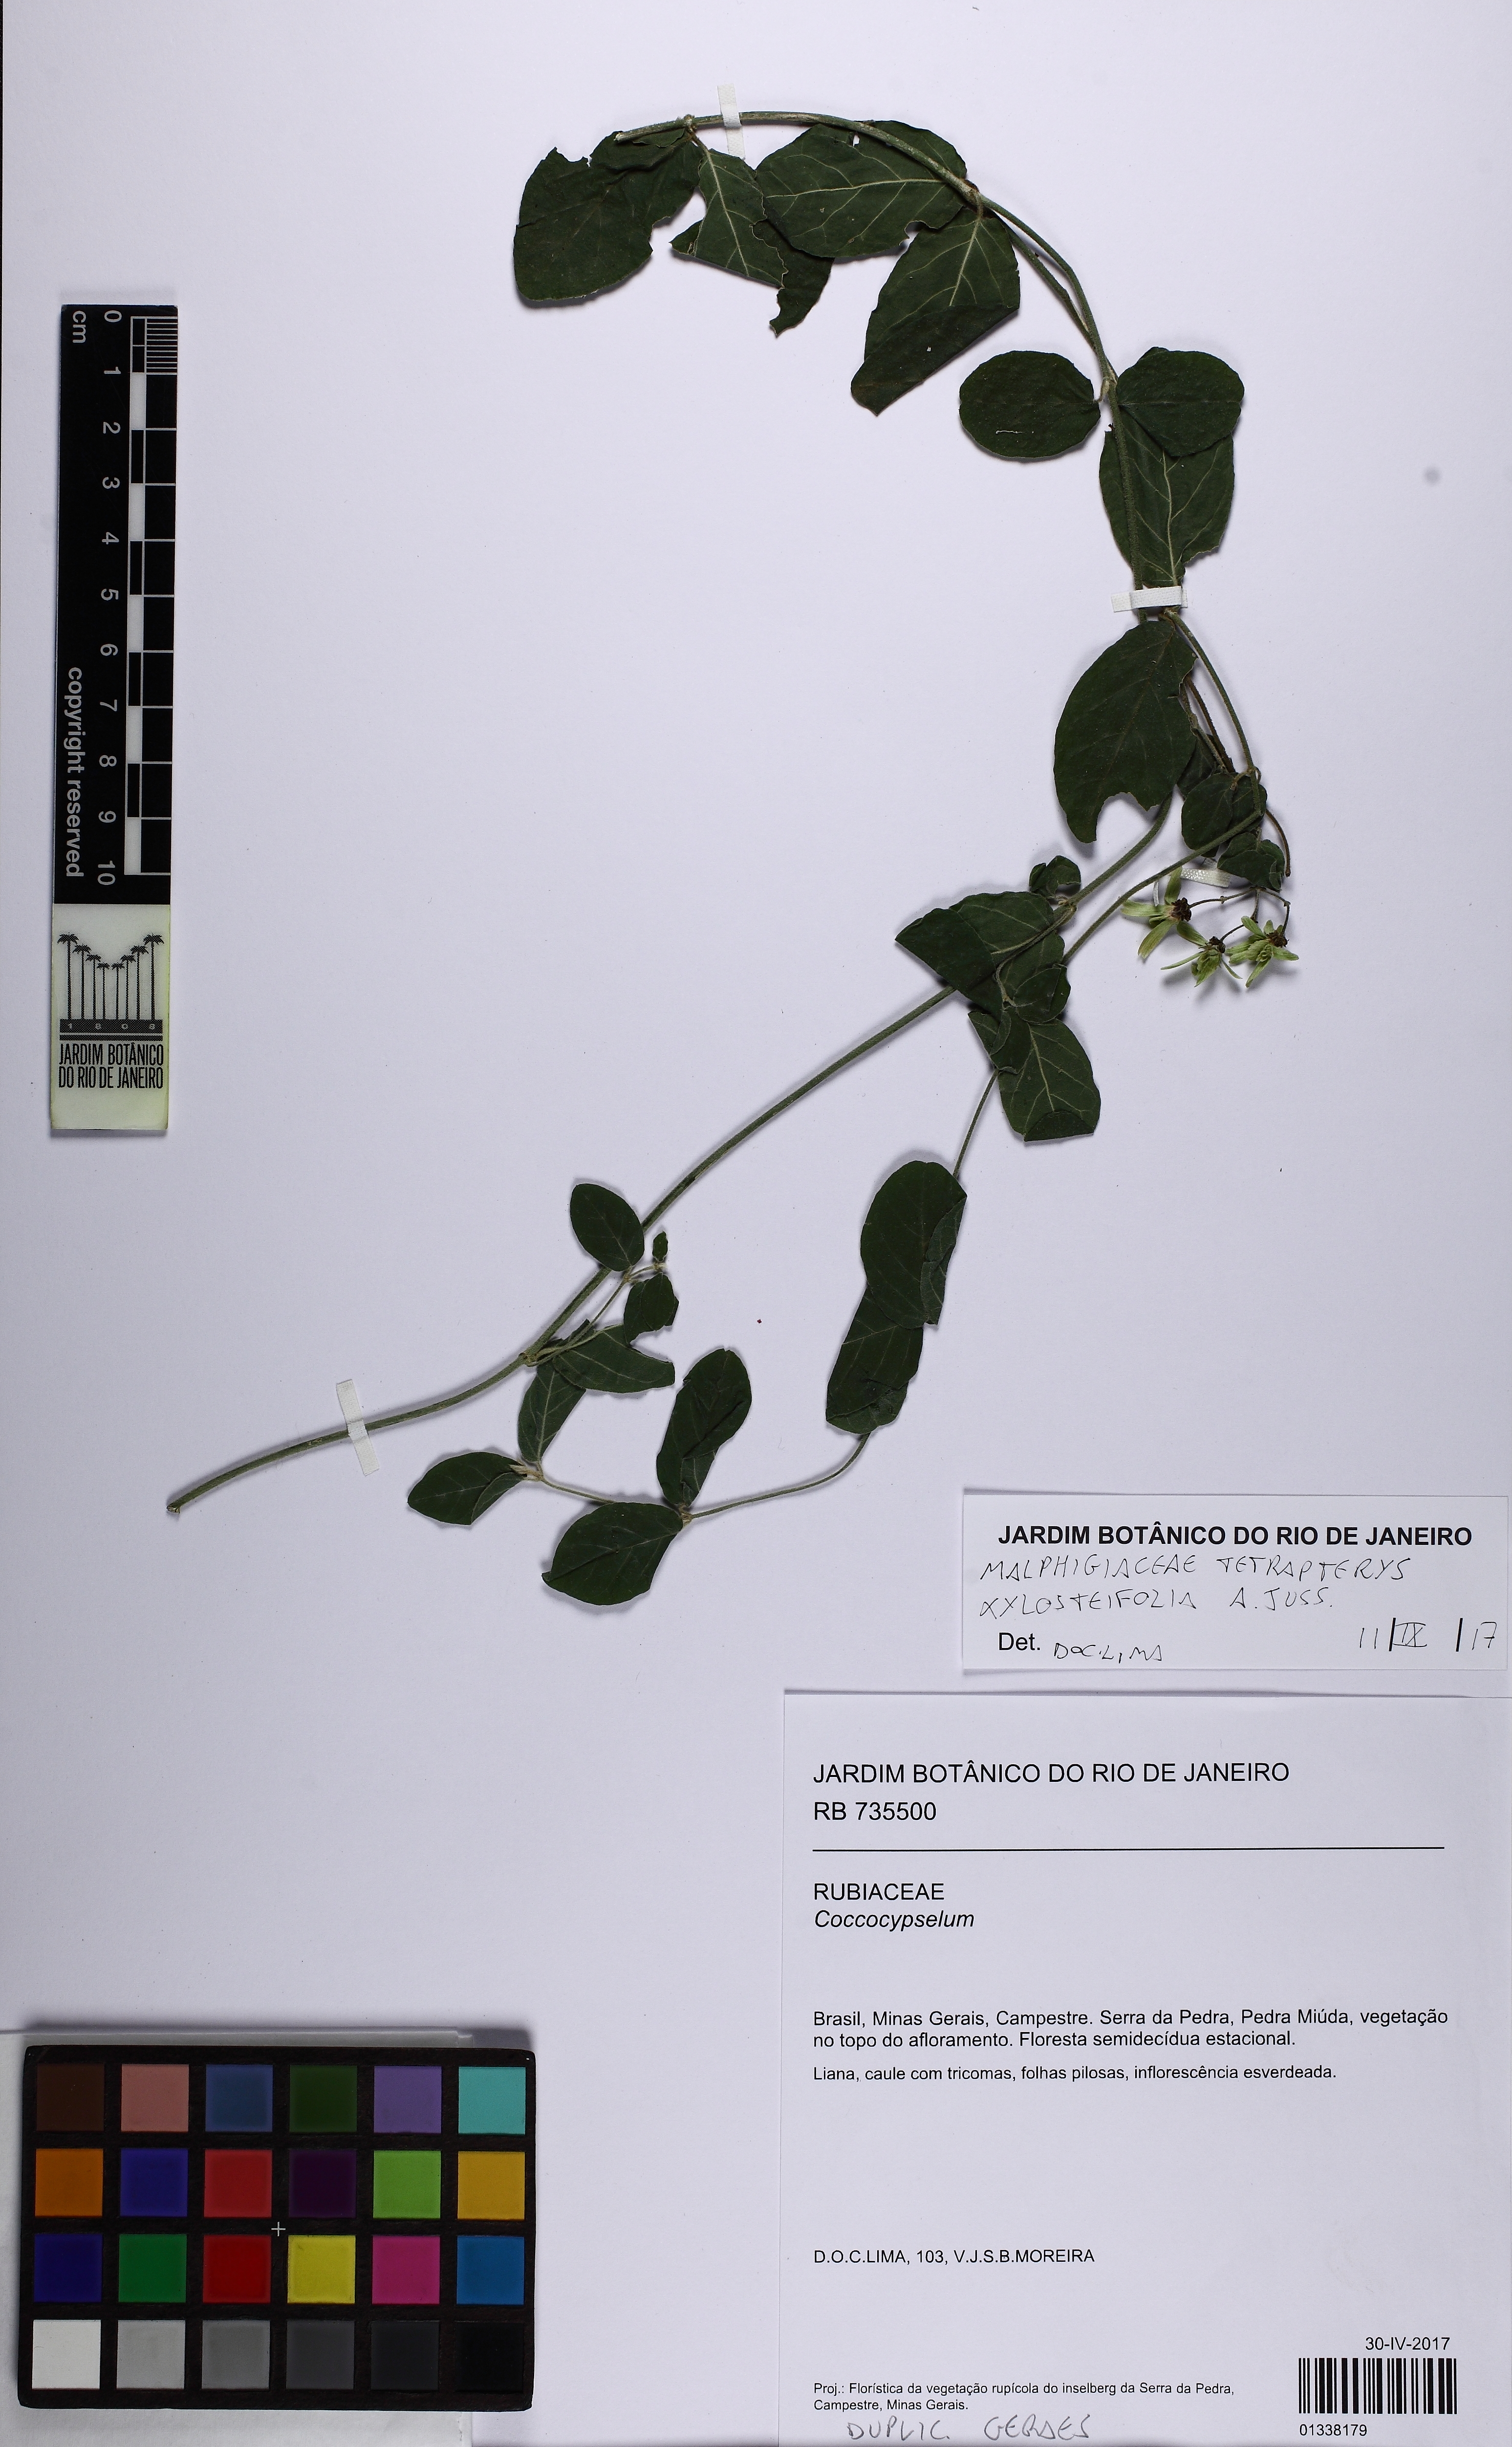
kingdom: Plantae
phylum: Tracheophyta
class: Magnoliopsida
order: Malpighiales
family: Malpighiaceae
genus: Tetrapterys
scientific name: Tetrapterys
